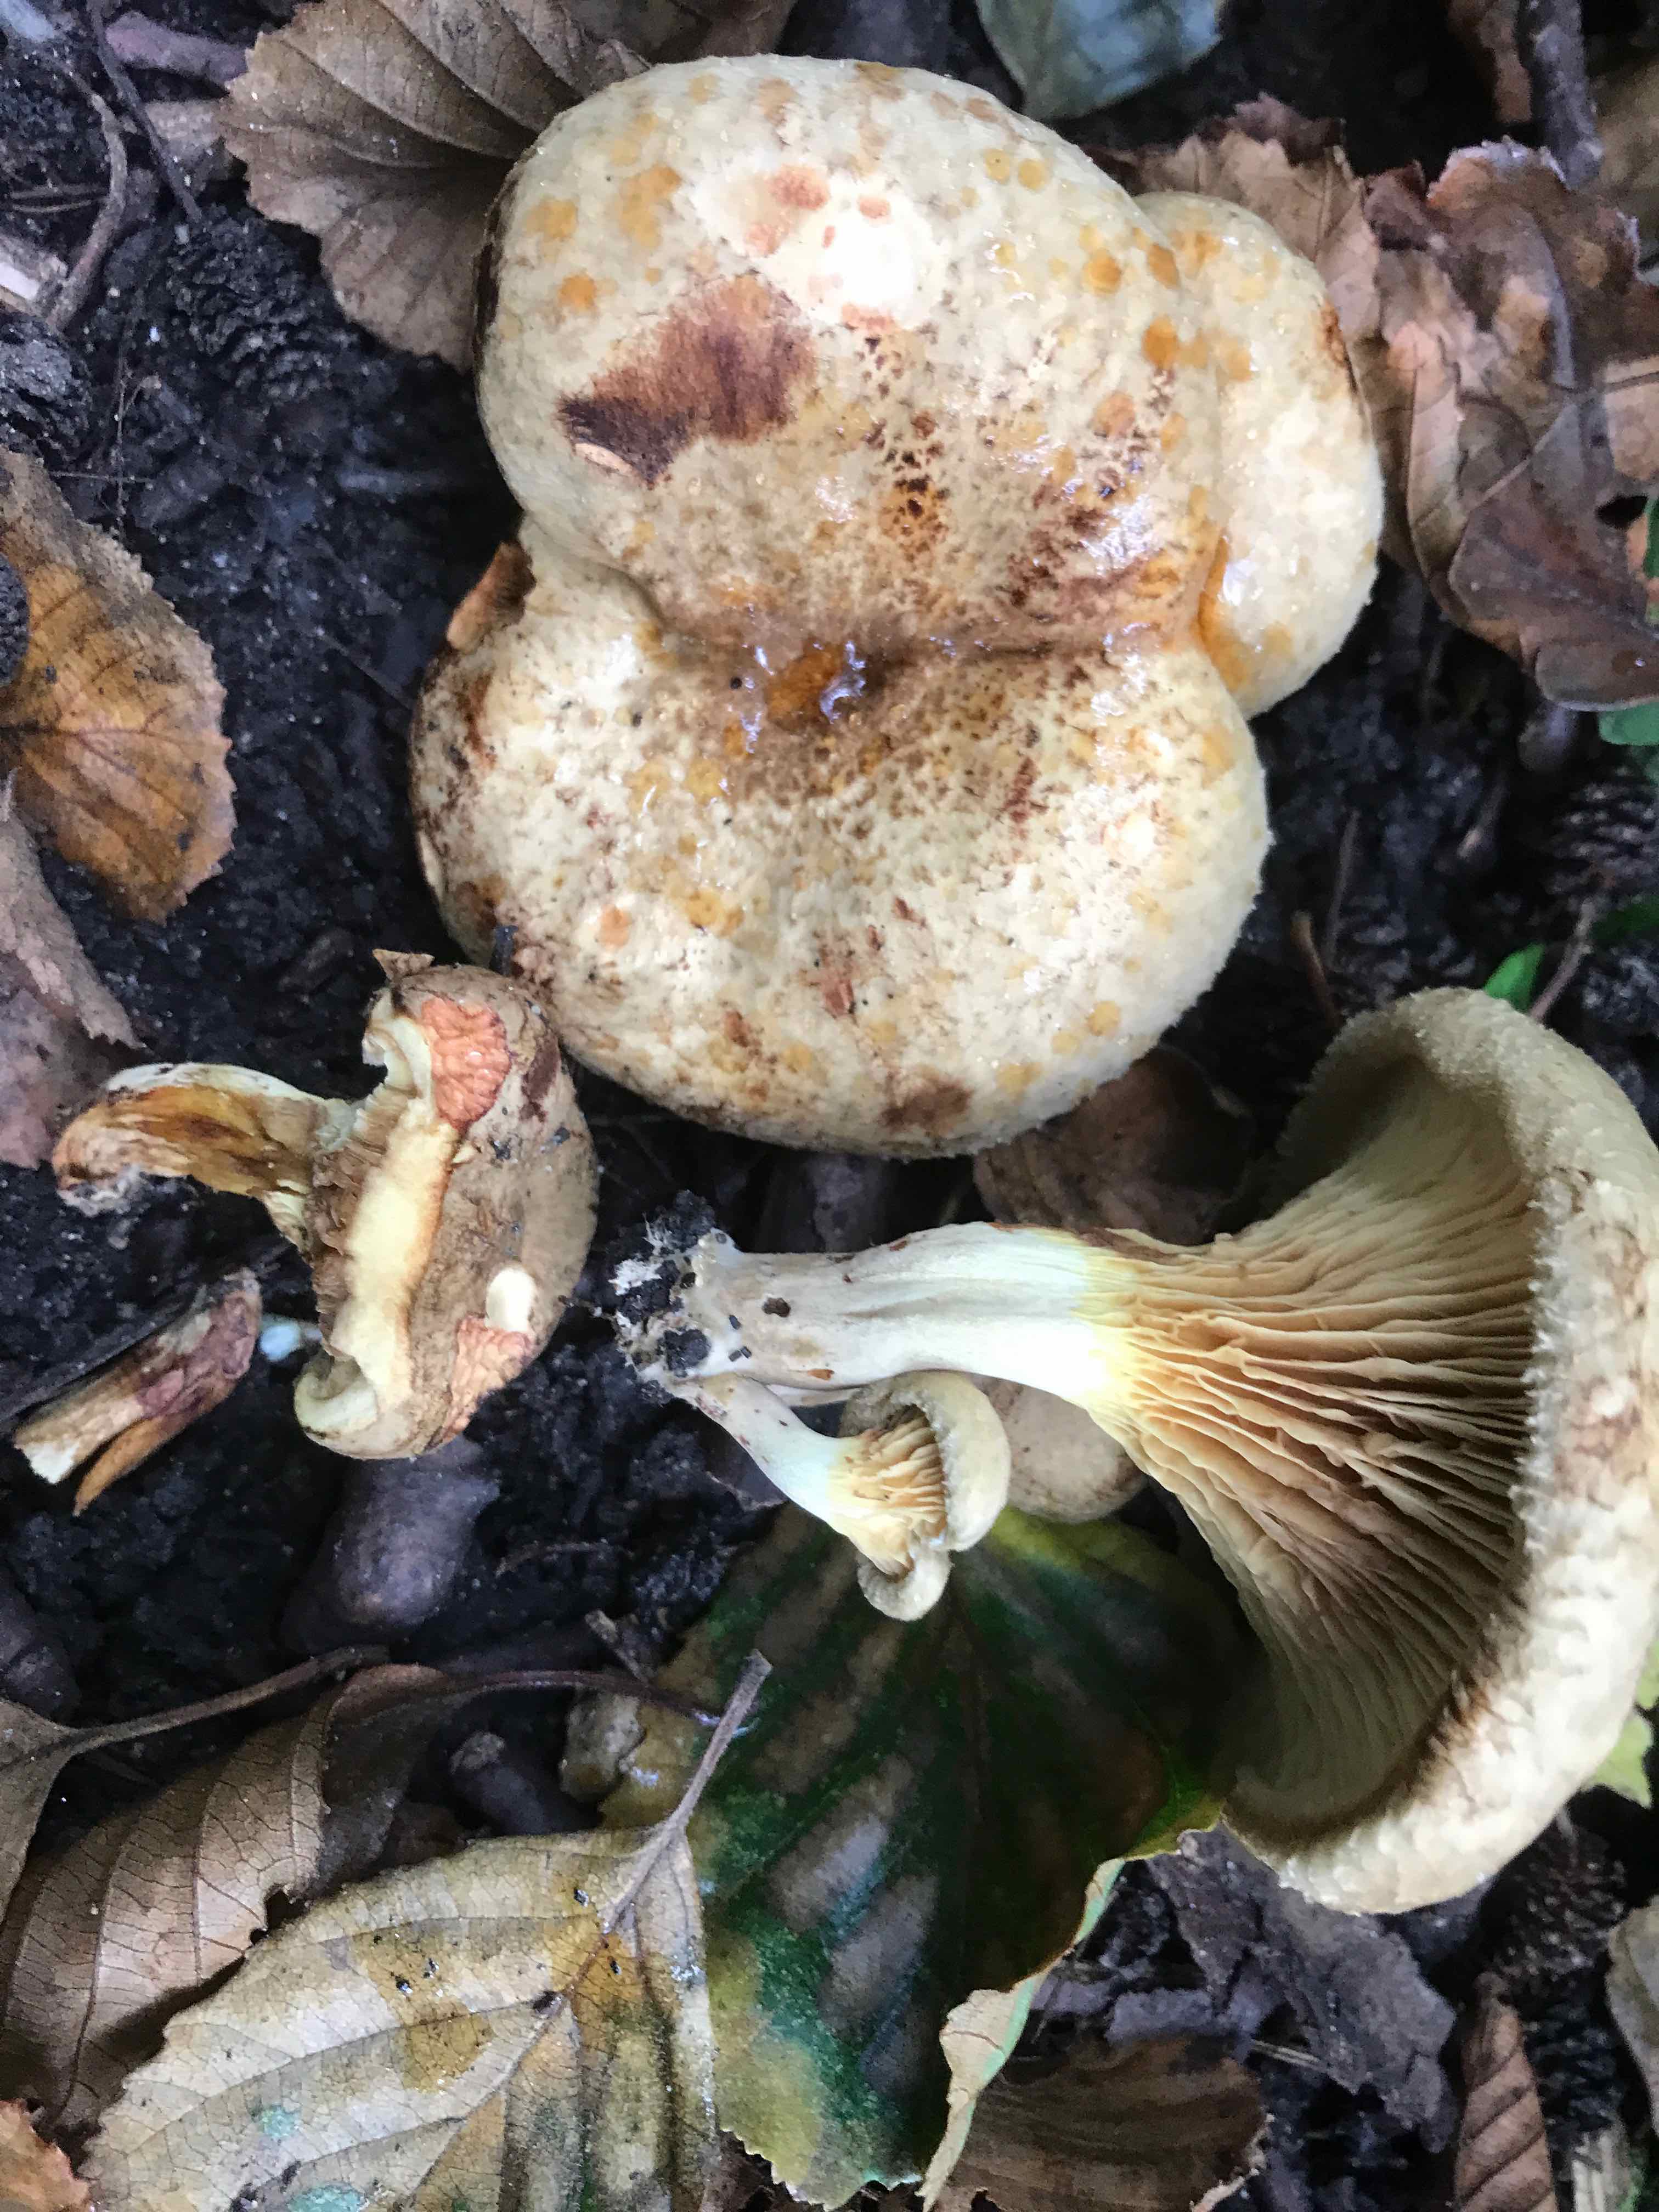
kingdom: Fungi
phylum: Basidiomycota
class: Agaricomycetes
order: Boletales
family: Paxillaceae
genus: Paxillus
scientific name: Paxillus rubicundulus
